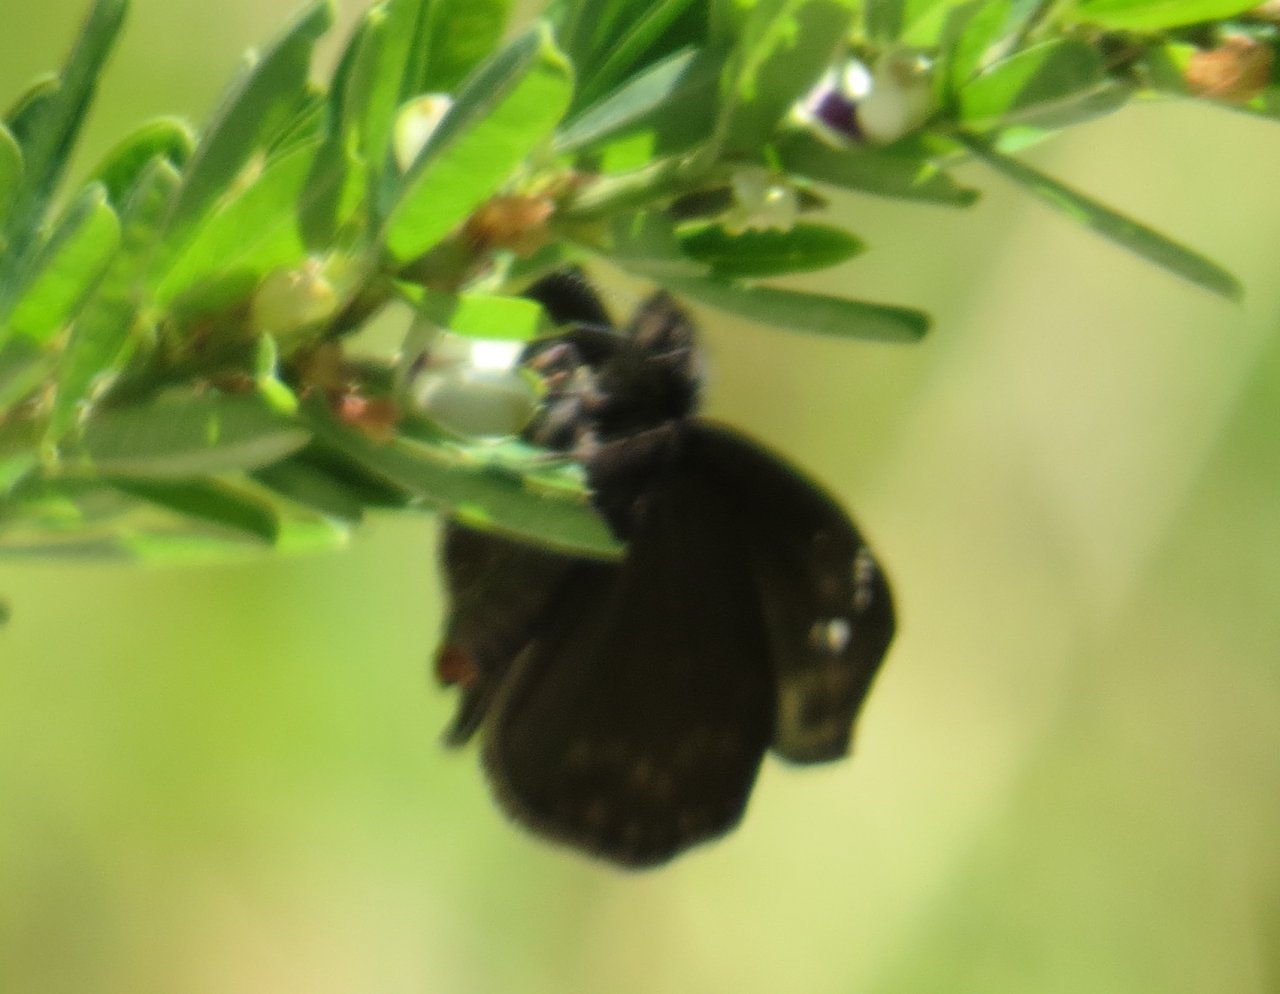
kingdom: Animalia
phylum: Arthropoda
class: Insecta
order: Lepidoptera
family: Hesperiidae
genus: Gesta
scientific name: Gesta
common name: Wild Indigo Duskywing
